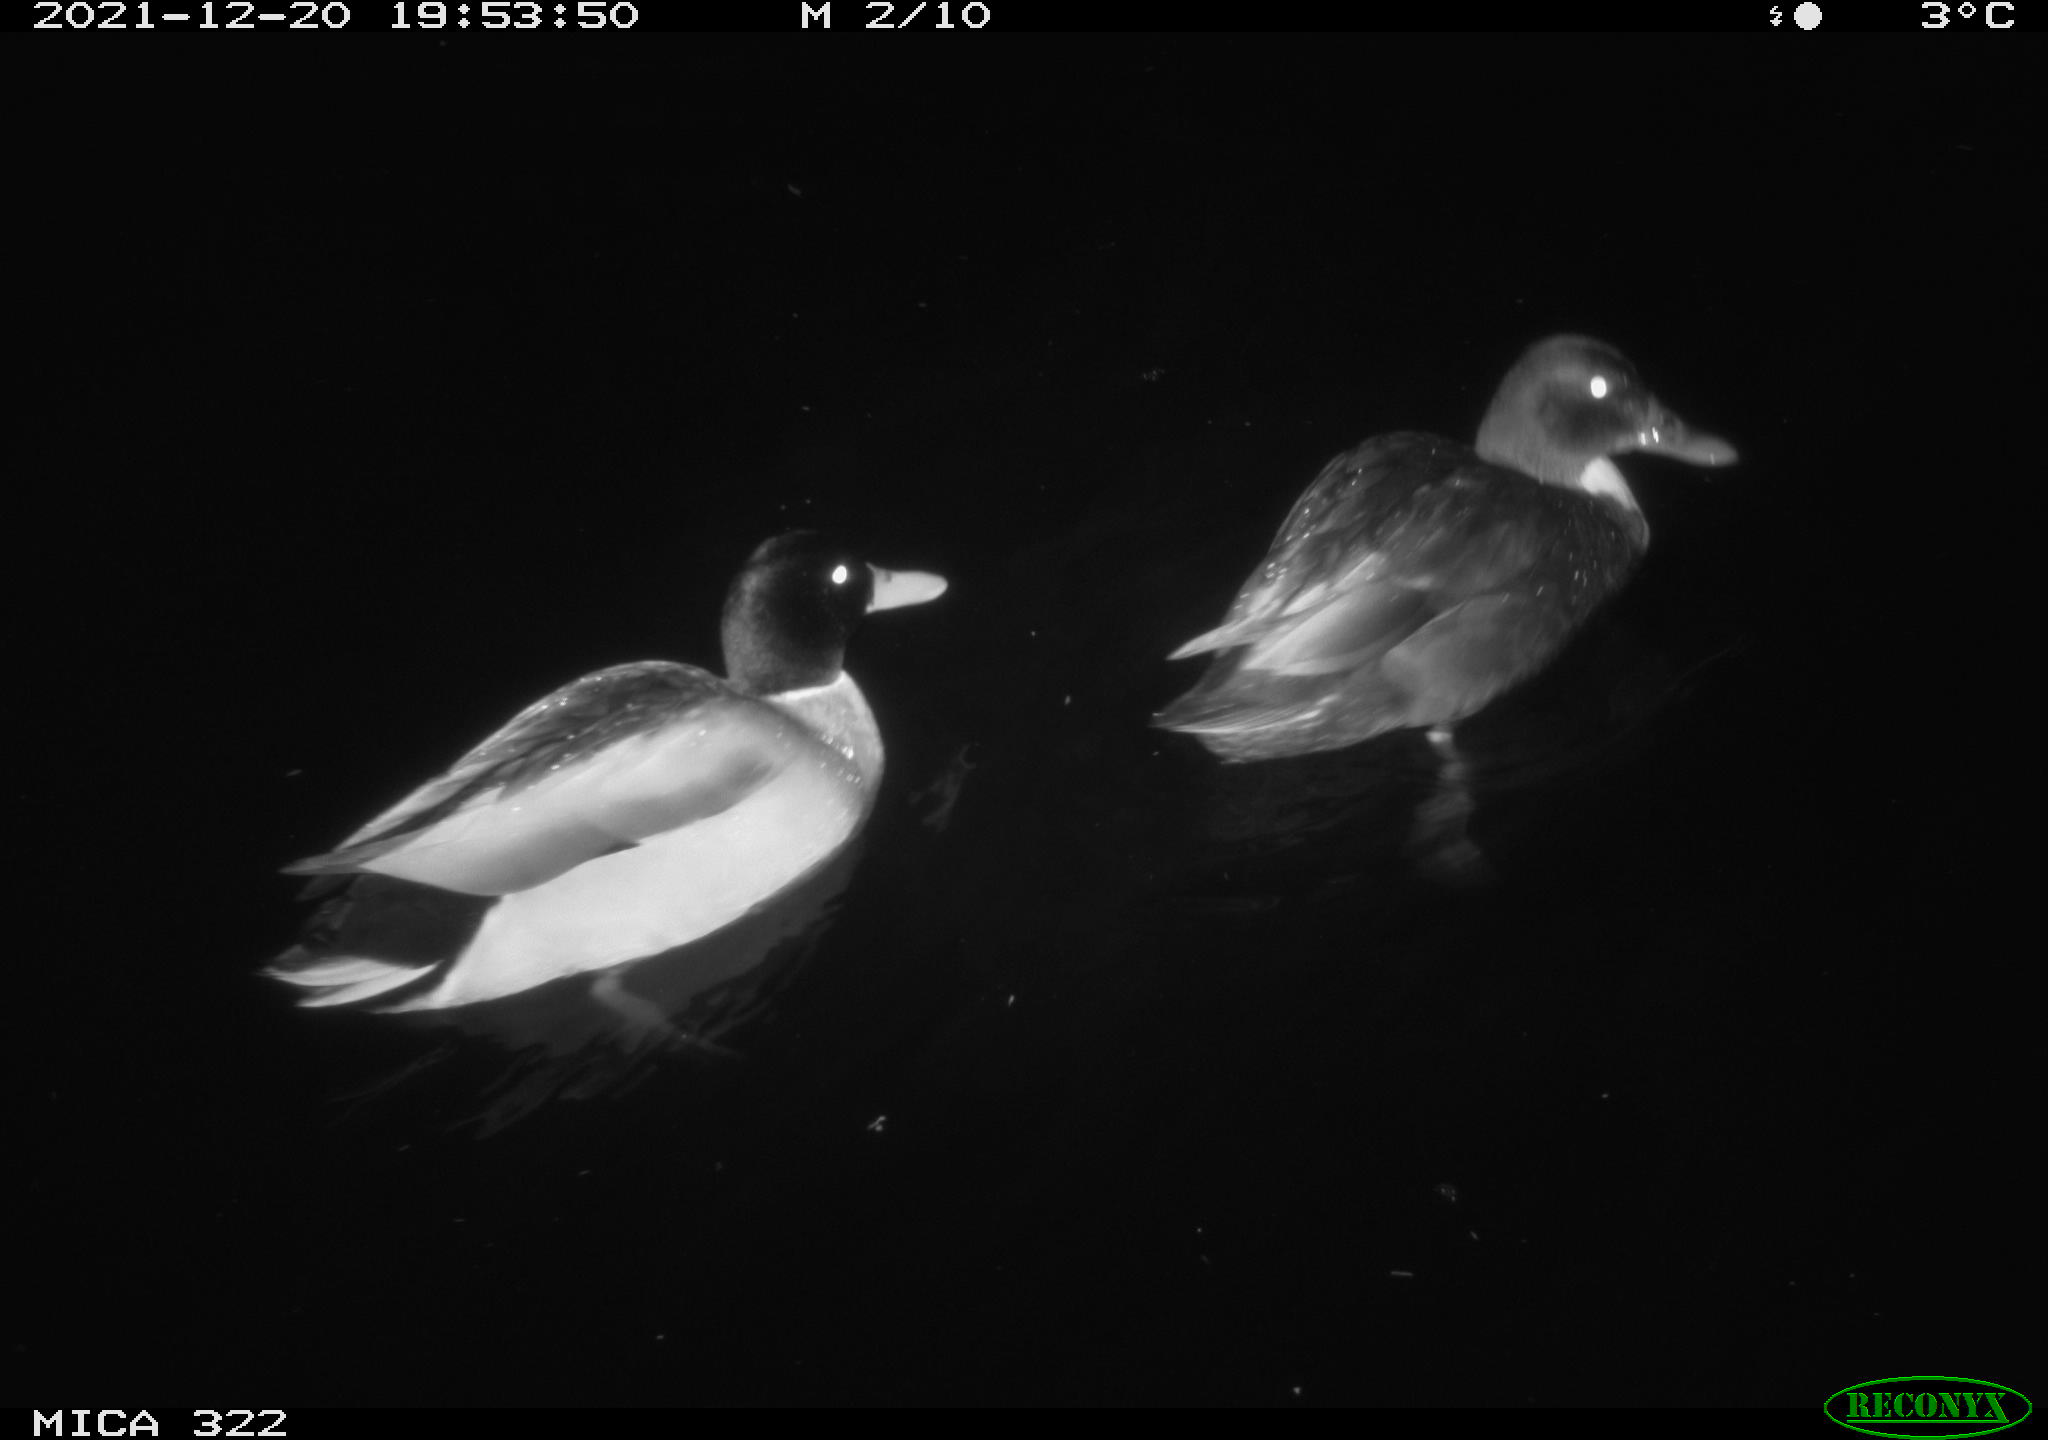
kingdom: Animalia
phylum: Chordata
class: Aves
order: Anseriformes
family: Anatidae
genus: Anas
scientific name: Anas
